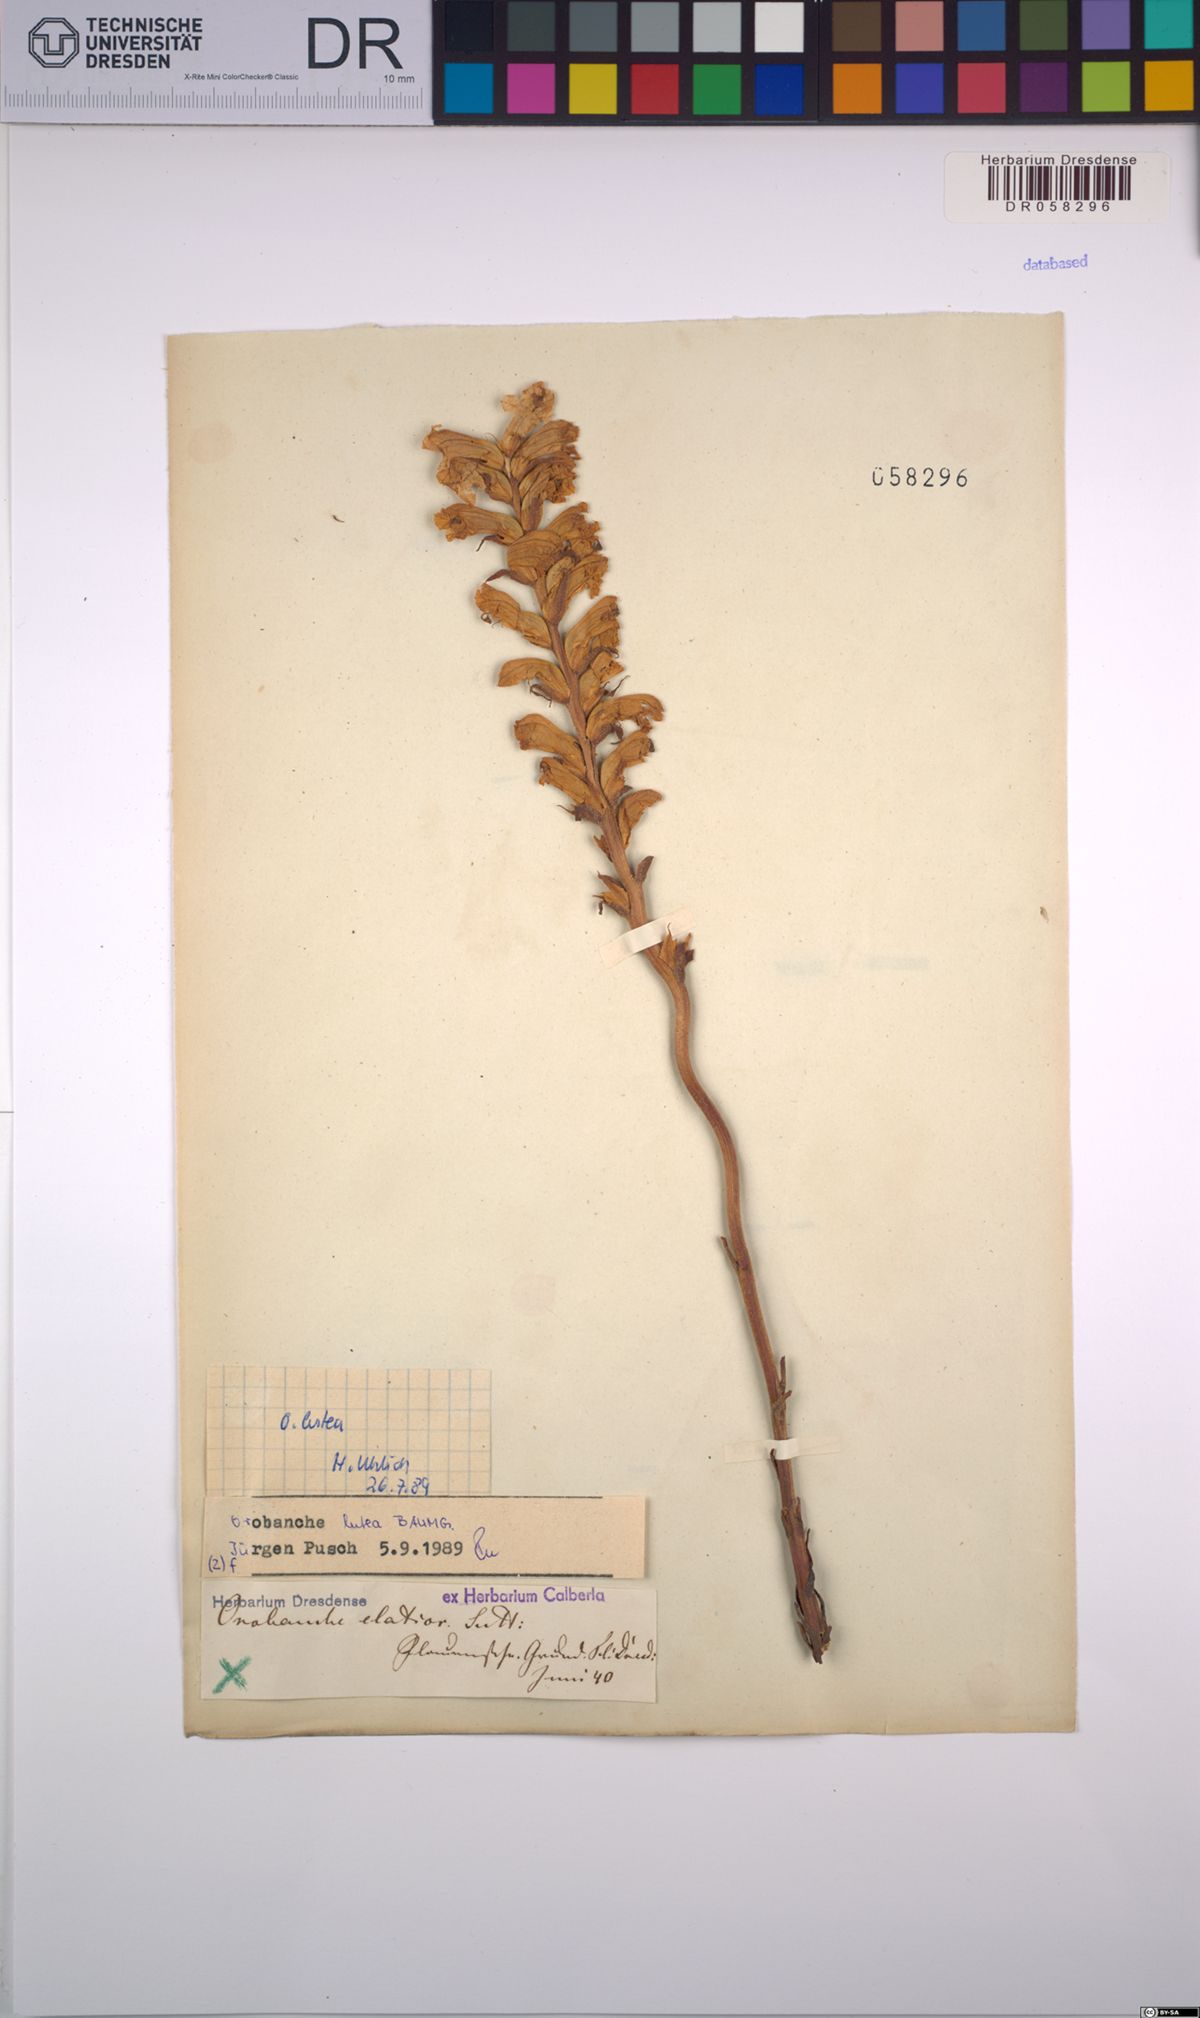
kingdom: Plantae
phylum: Tracheophyta
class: Magnoliopsida
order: Lamiales
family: Orobanchaceae
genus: Orobanche
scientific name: Orobanche lutea
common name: Yellow broomrape
